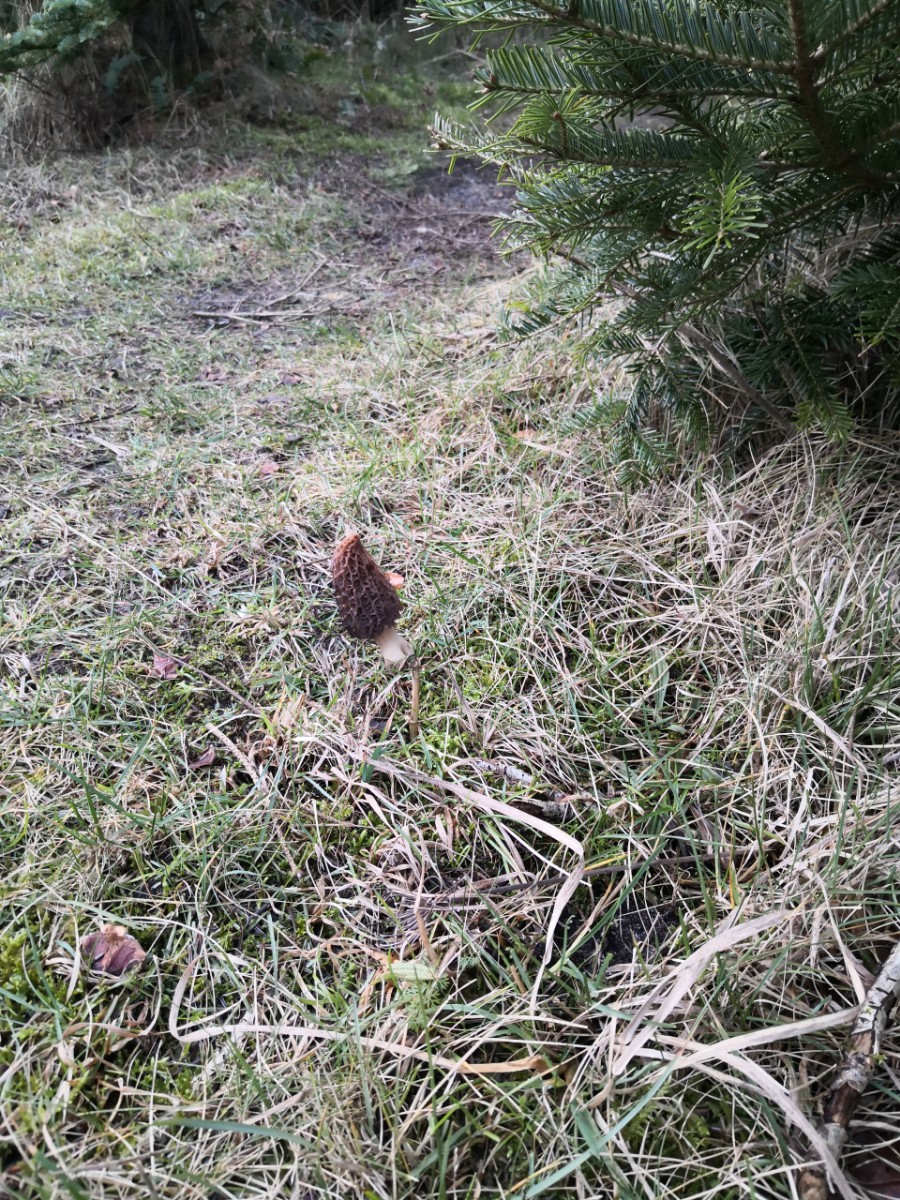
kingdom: Fungi
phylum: Ascomycota
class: Pezizomycetes
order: Pezizales
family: Morchellaceae
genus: Morchella
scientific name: Morchella esculenta
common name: Morel
